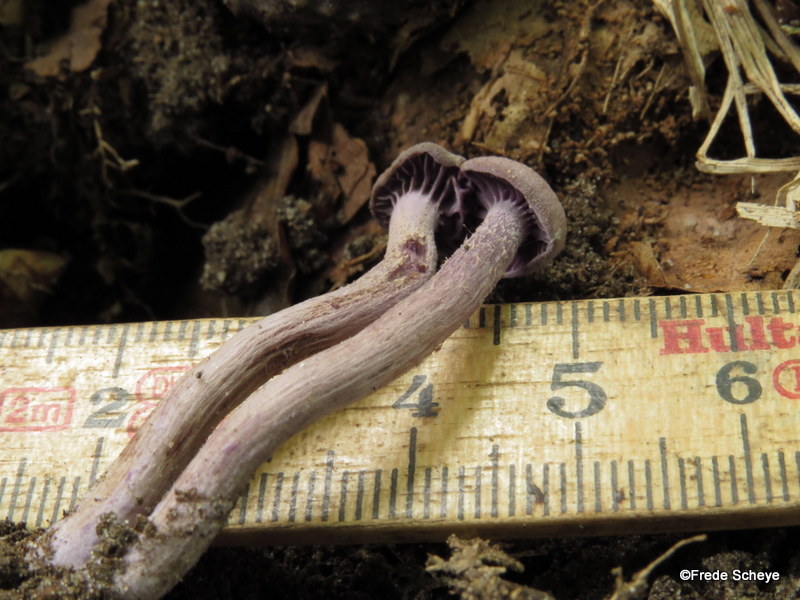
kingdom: Fungi
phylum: Basidiomycota
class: Agaricomycetes
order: Agaricales
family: Hydnangiaceae
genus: Laccaria
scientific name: Laccaria amethystina
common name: violet ametysthat
